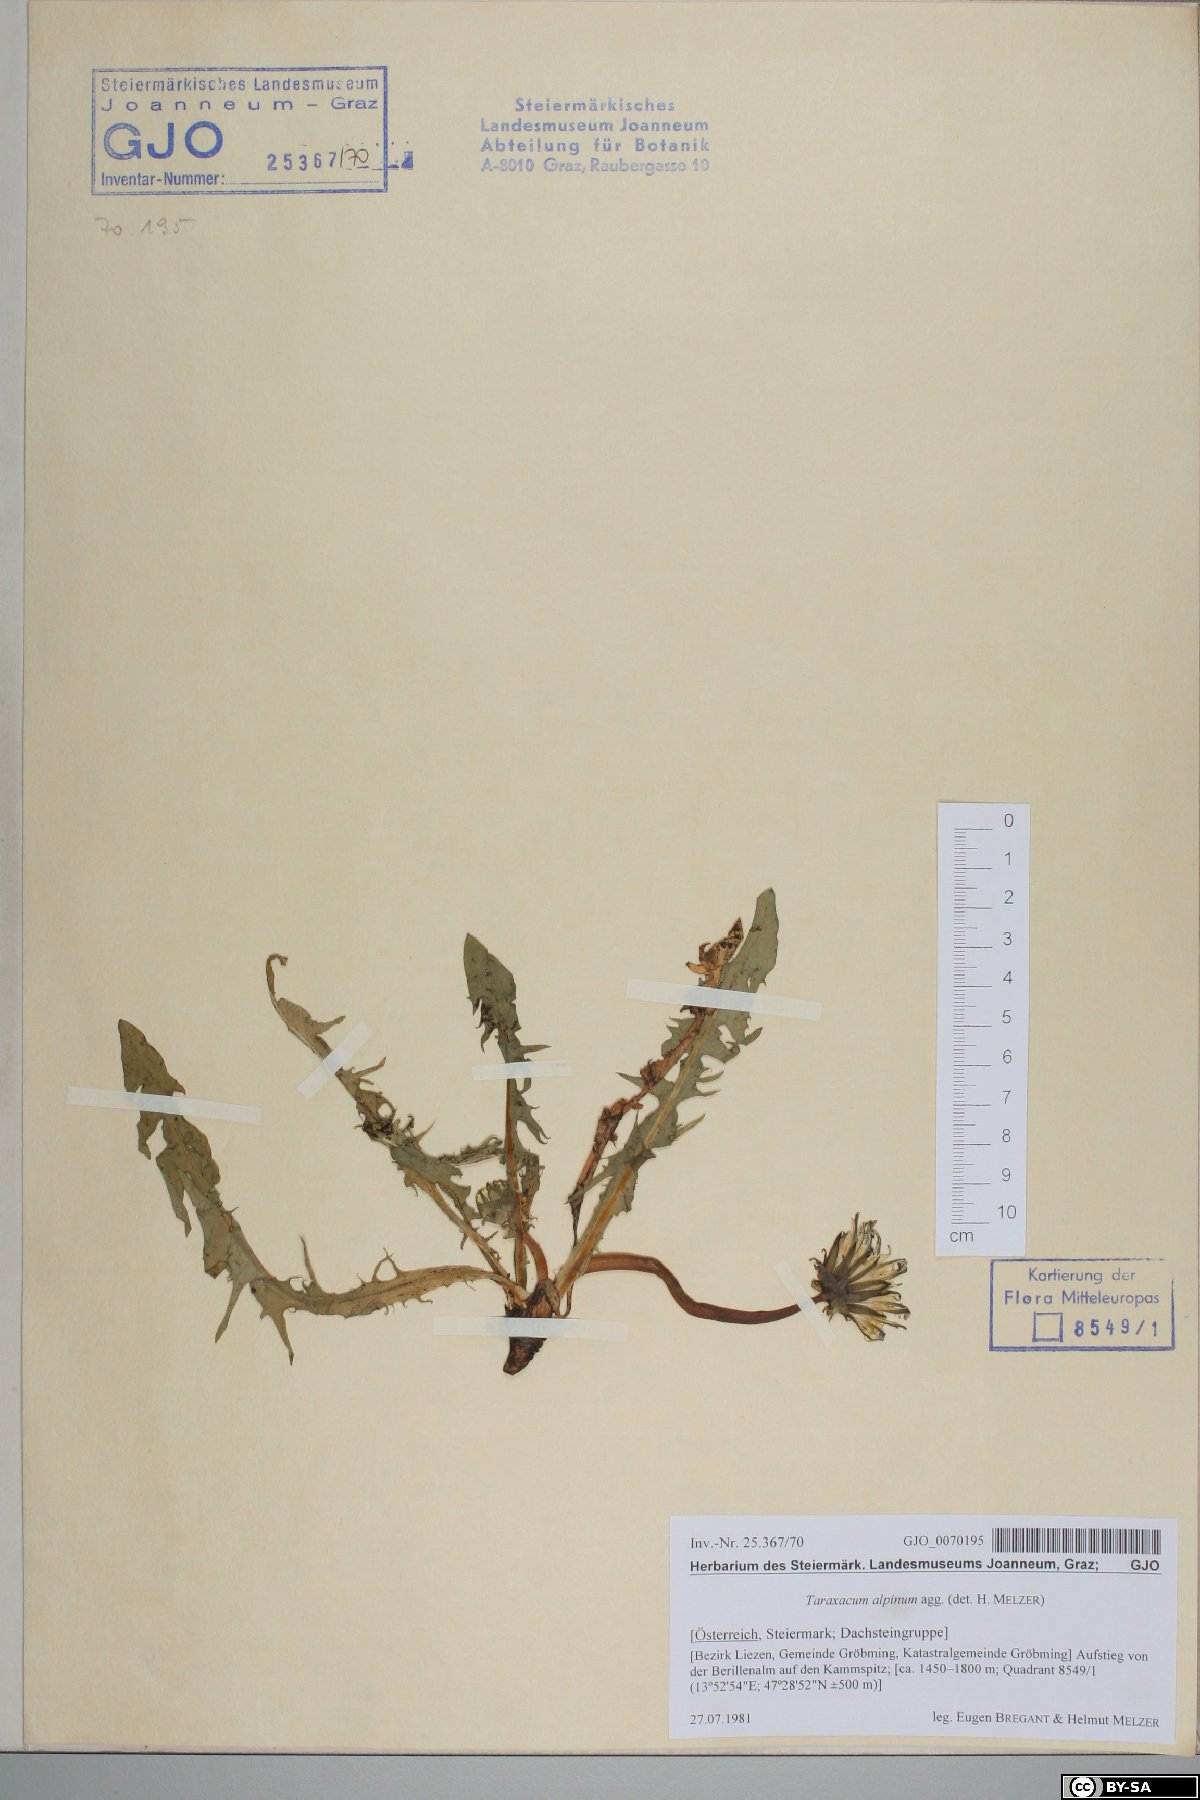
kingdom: Plantae
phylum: Tracheophyta
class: Magnoliopsida
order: Asterales
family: Asteraceae
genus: Taraxacum
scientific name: Taraxacum alpinum
